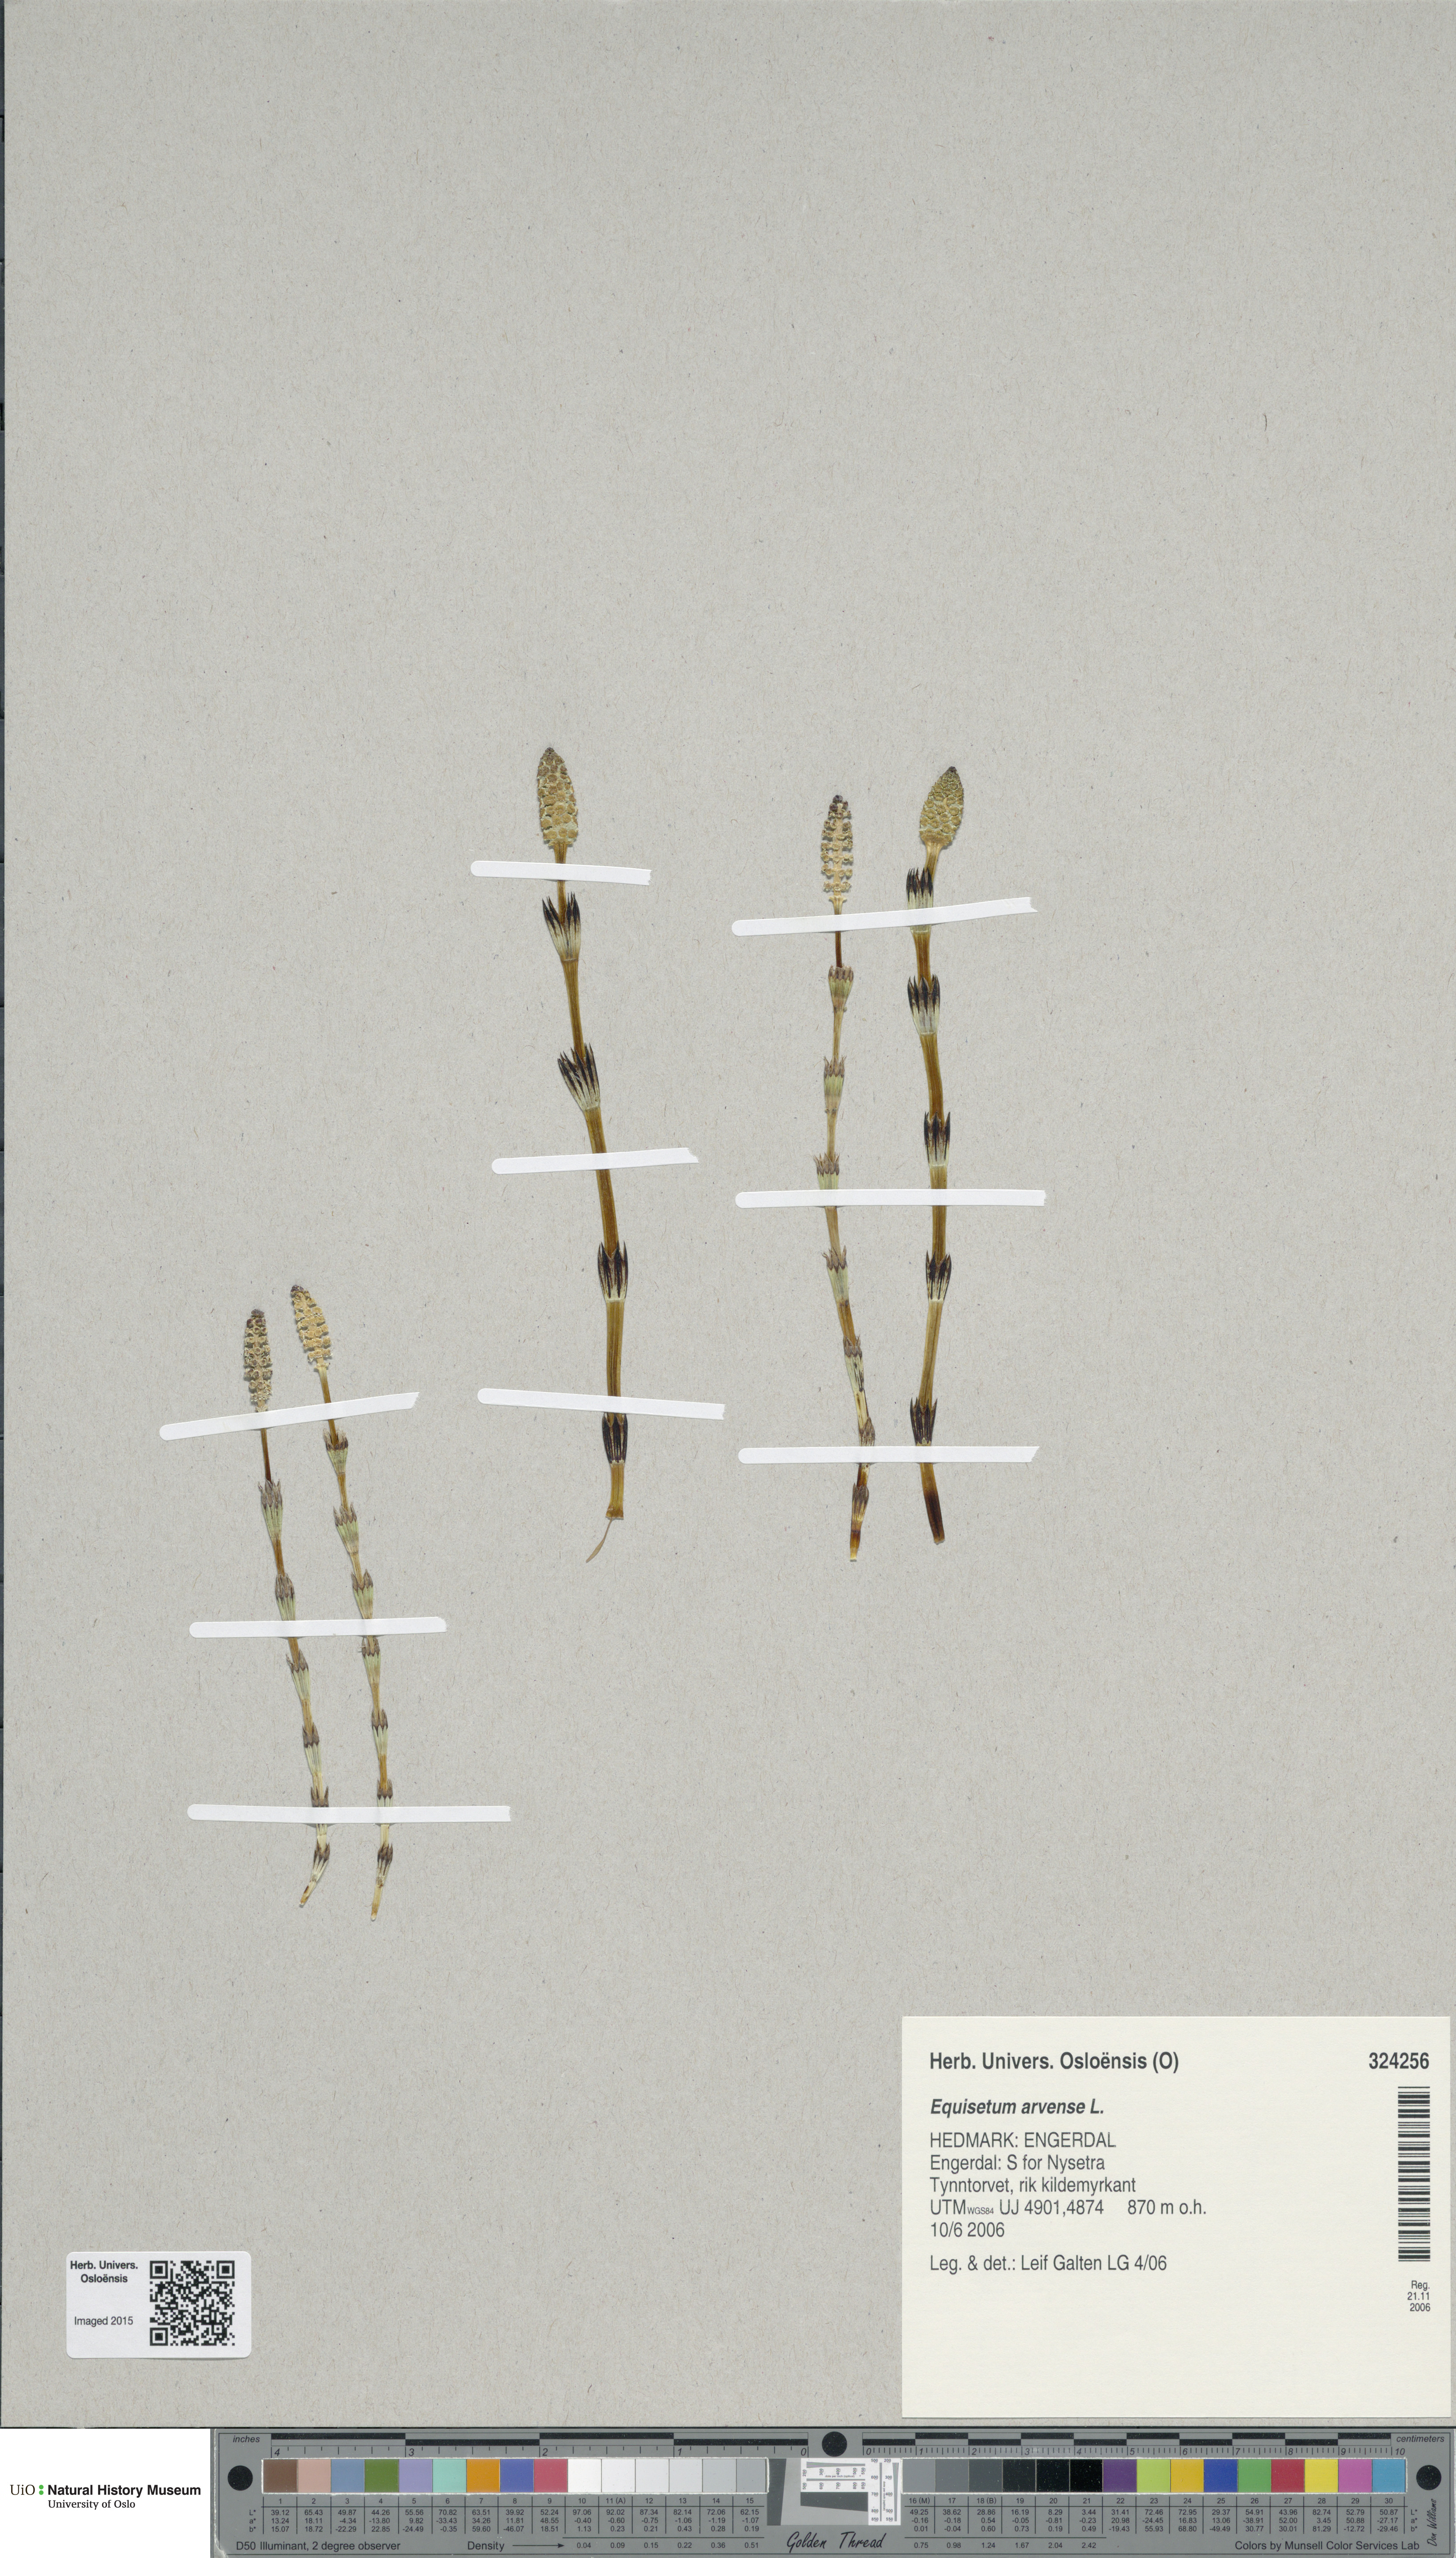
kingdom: Plantae
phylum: Tracheophyta
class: Polypodiopsida
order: Equisetales
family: Equisetaceae
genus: Equisetum
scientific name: Equisetum arvense
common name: Field horsetail
